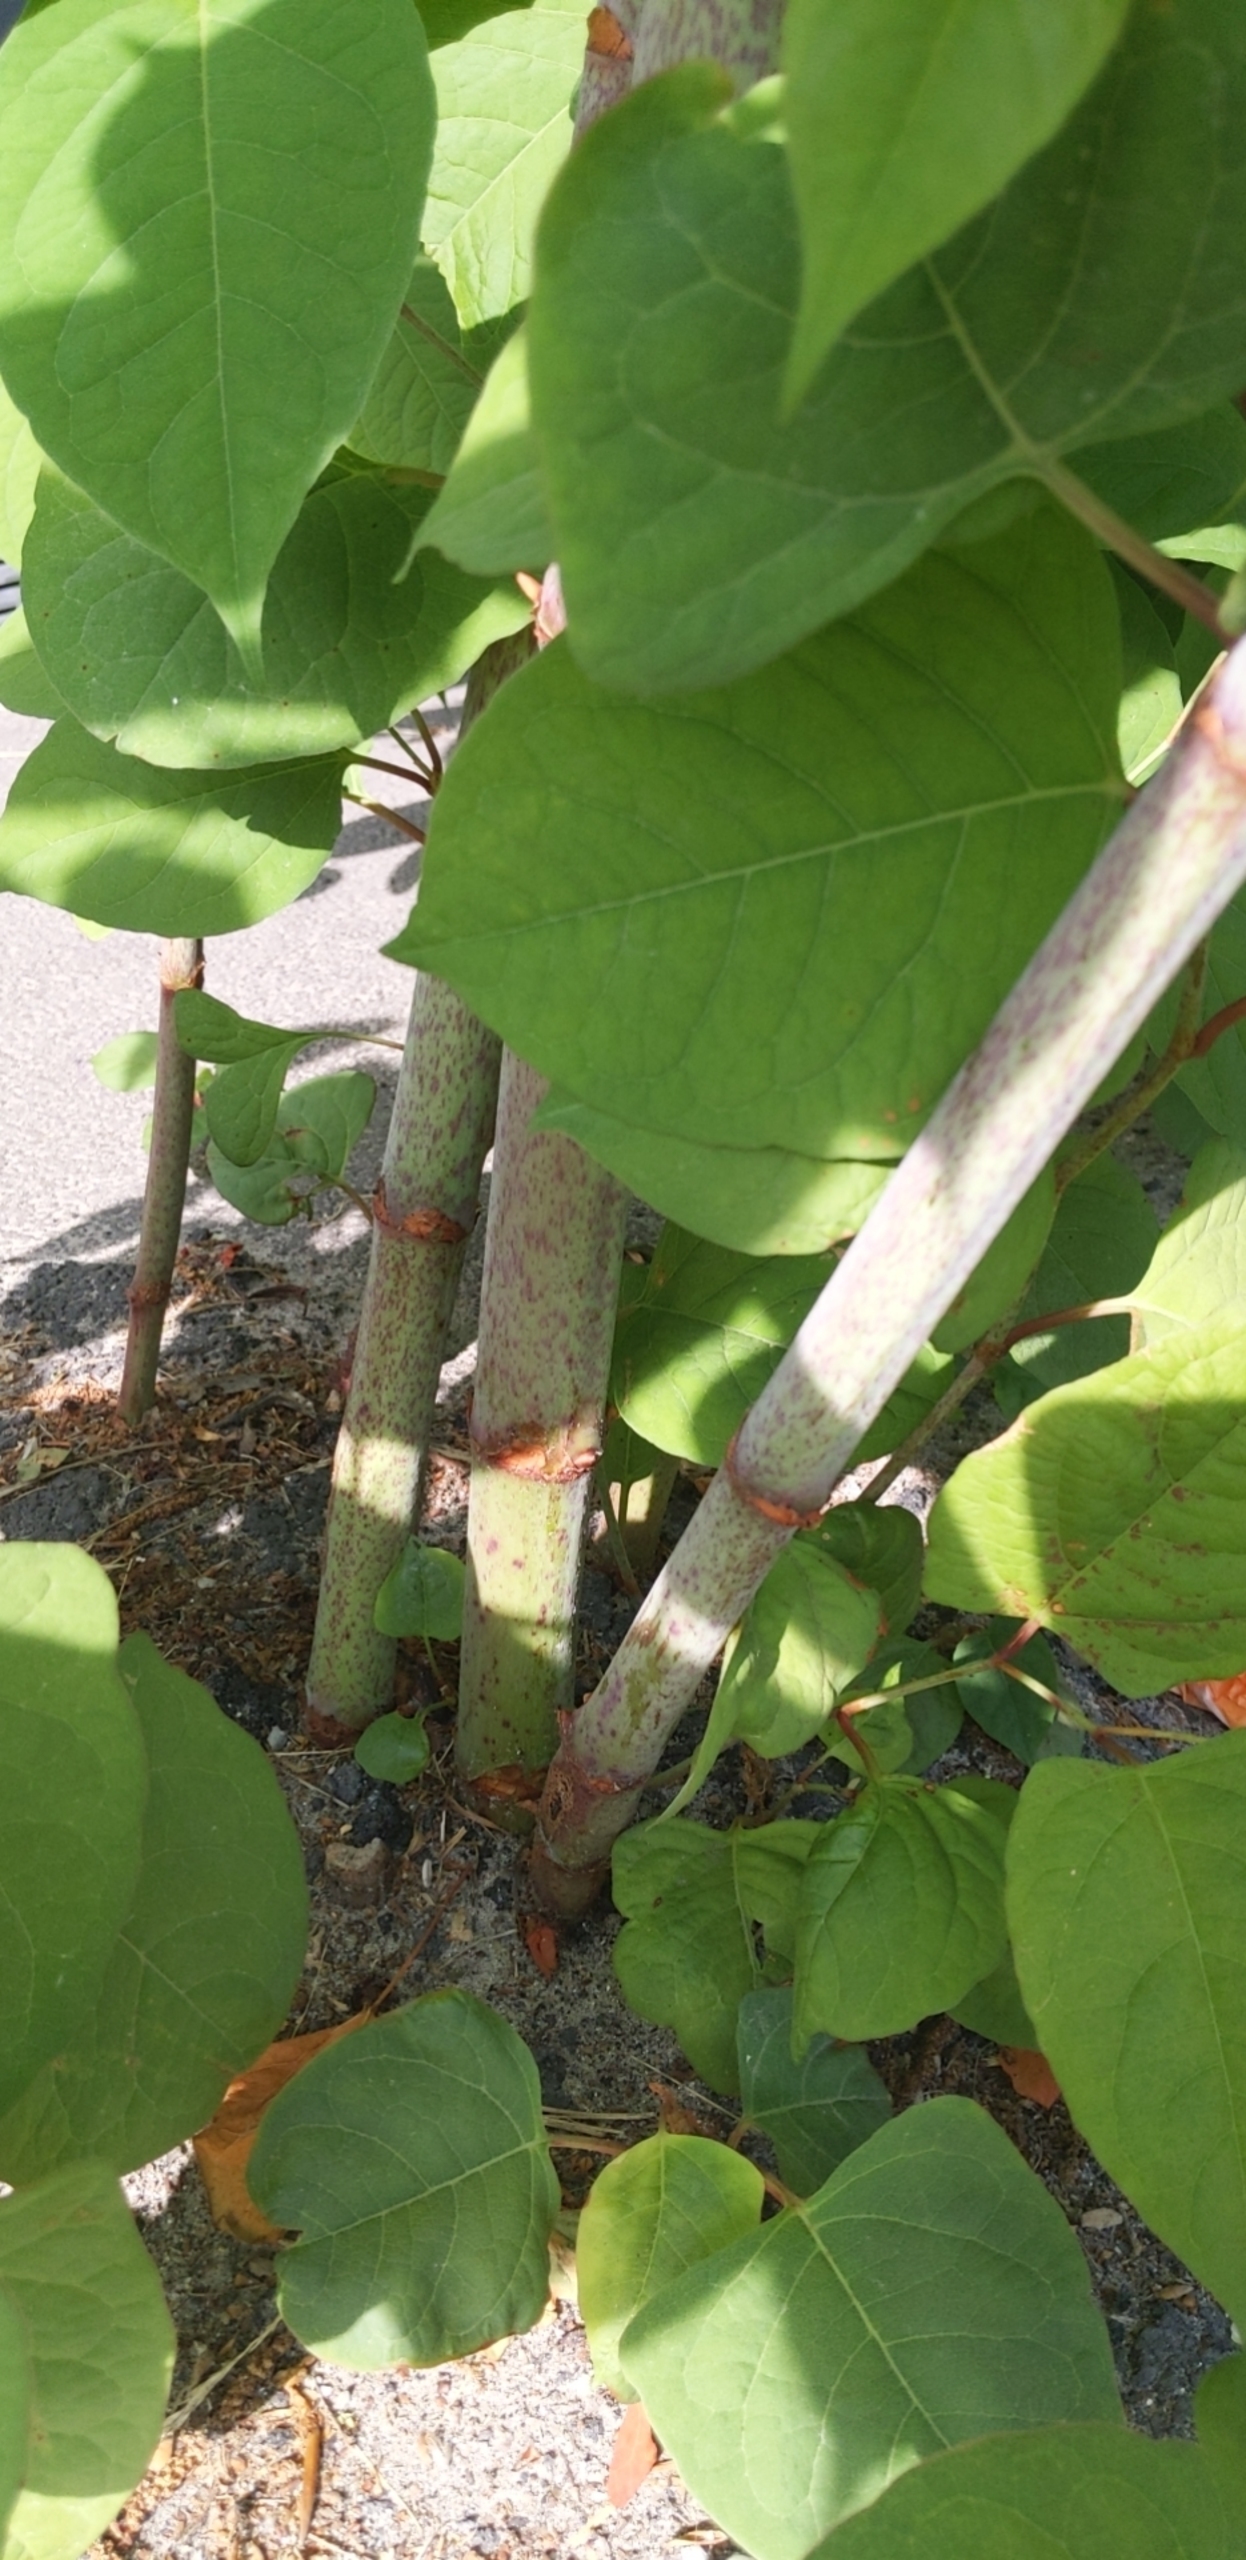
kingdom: Plantae
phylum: Tracheophyta
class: Magnoliopsida
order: Caryophyllales
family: Polygonaceae
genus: Reynoutria
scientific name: Reynoutria japonica
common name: Japan-pileurt
